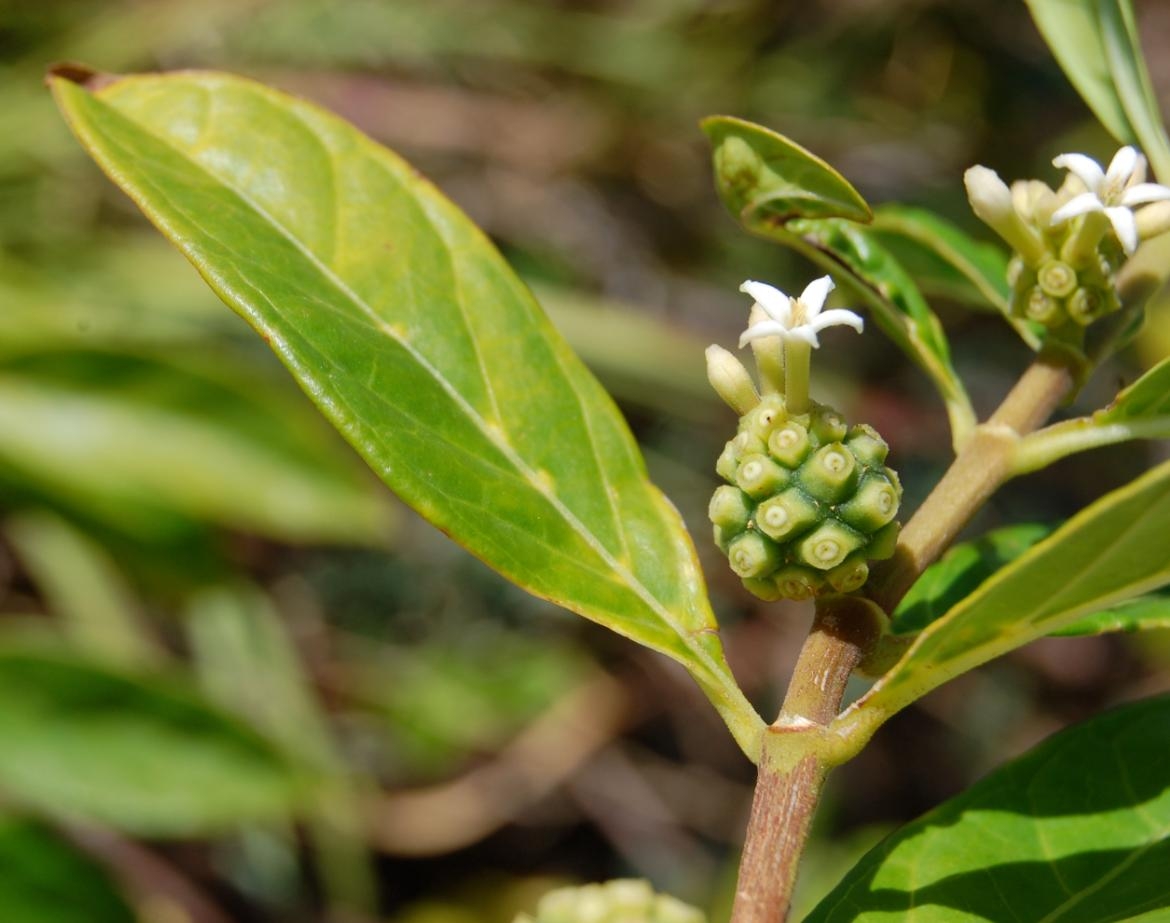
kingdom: Plantae
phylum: Tracheophyta
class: Magnoliopsida
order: Gentianales
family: Rubiaceae
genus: Morinda
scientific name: Morinda royoc
